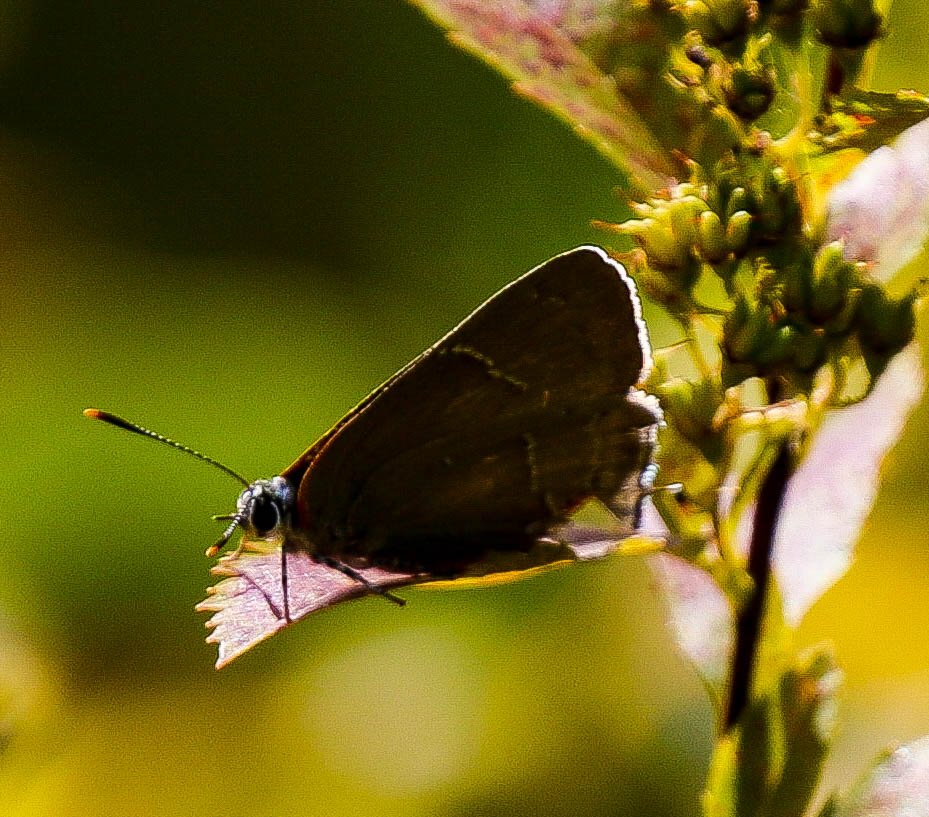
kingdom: Animalia
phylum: Arthropoda
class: Insecta
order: Lepidoptera
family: Lycaenidae
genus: Parrhasius
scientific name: Parrhasius m-album
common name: White-m Hairstreak
